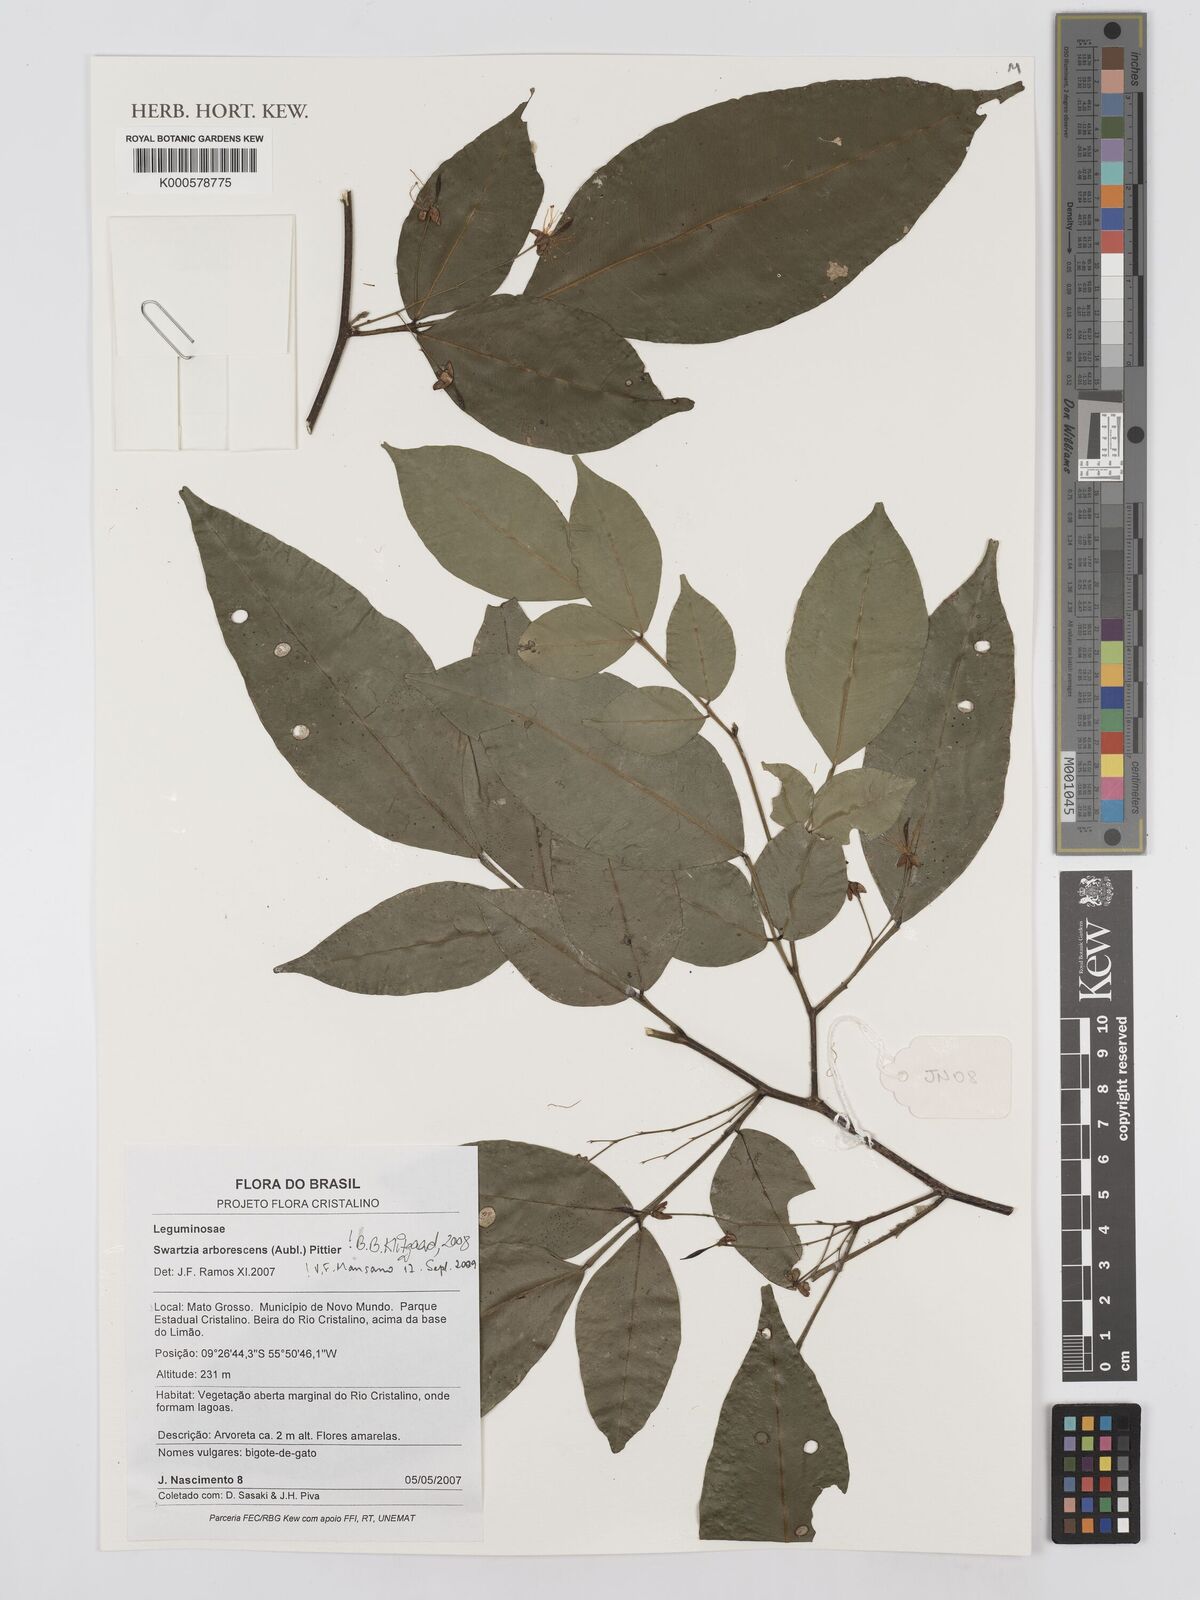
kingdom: Plantae
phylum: Tracheophyta
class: Magnoliopsida
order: Fabales
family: Fabaceae
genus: Swartzia
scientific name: Swartzia arborescens
